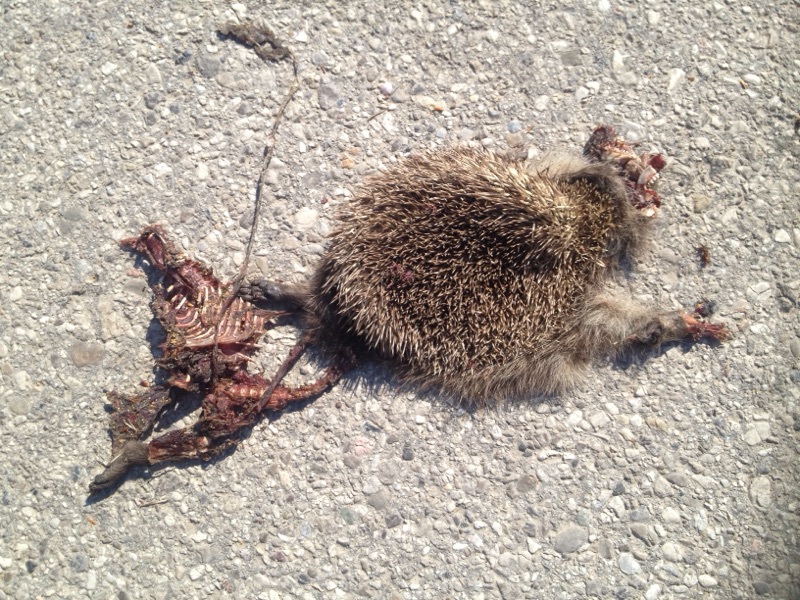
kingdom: Animalia
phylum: Chordata
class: Mammalia
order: Erinaceomorpha
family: Erinaceidae
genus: Erinaceus
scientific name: Erinaceus
